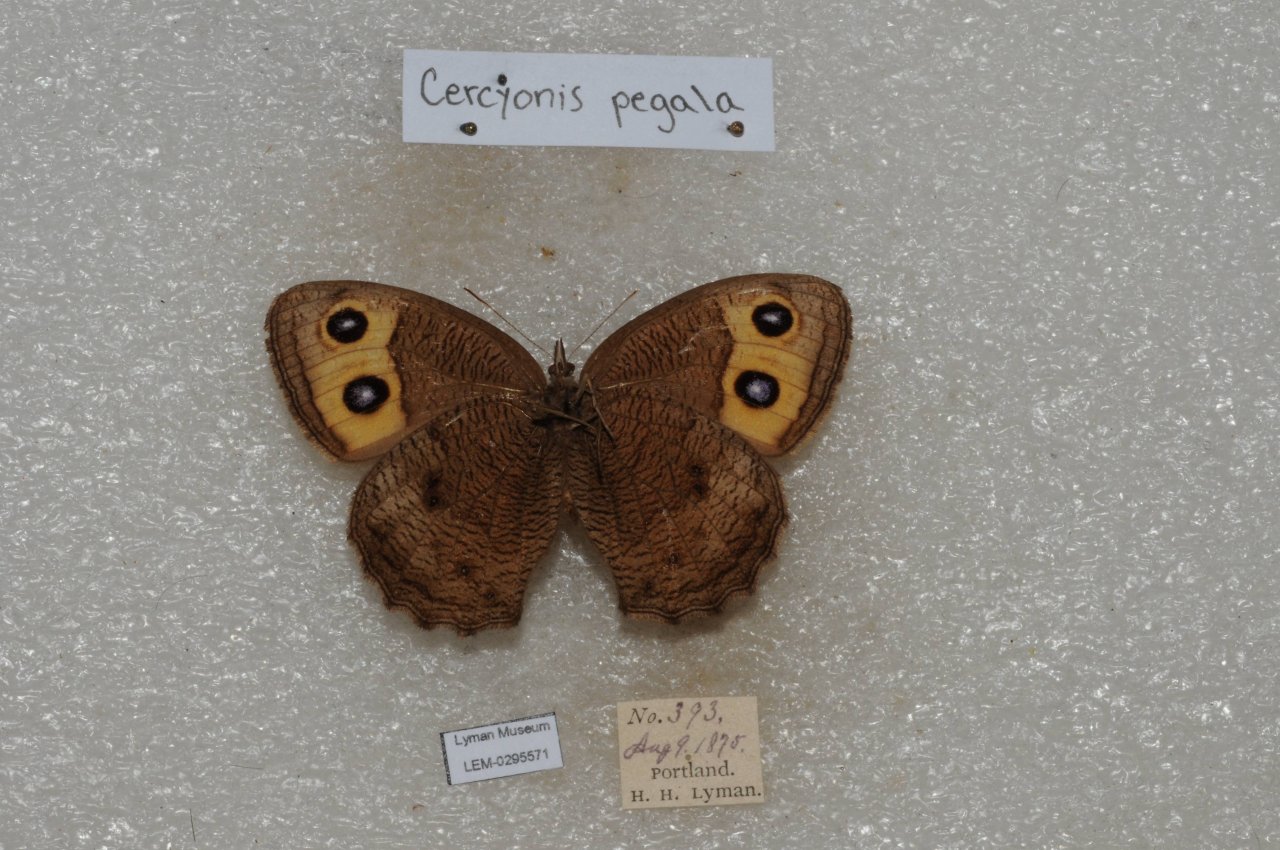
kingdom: Animalia
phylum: Arthropoda
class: Insecta
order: Lepidoptera
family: Nymphalidae
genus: Cercyonis
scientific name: Cercyonis pegala
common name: Common Wood-Nymph
